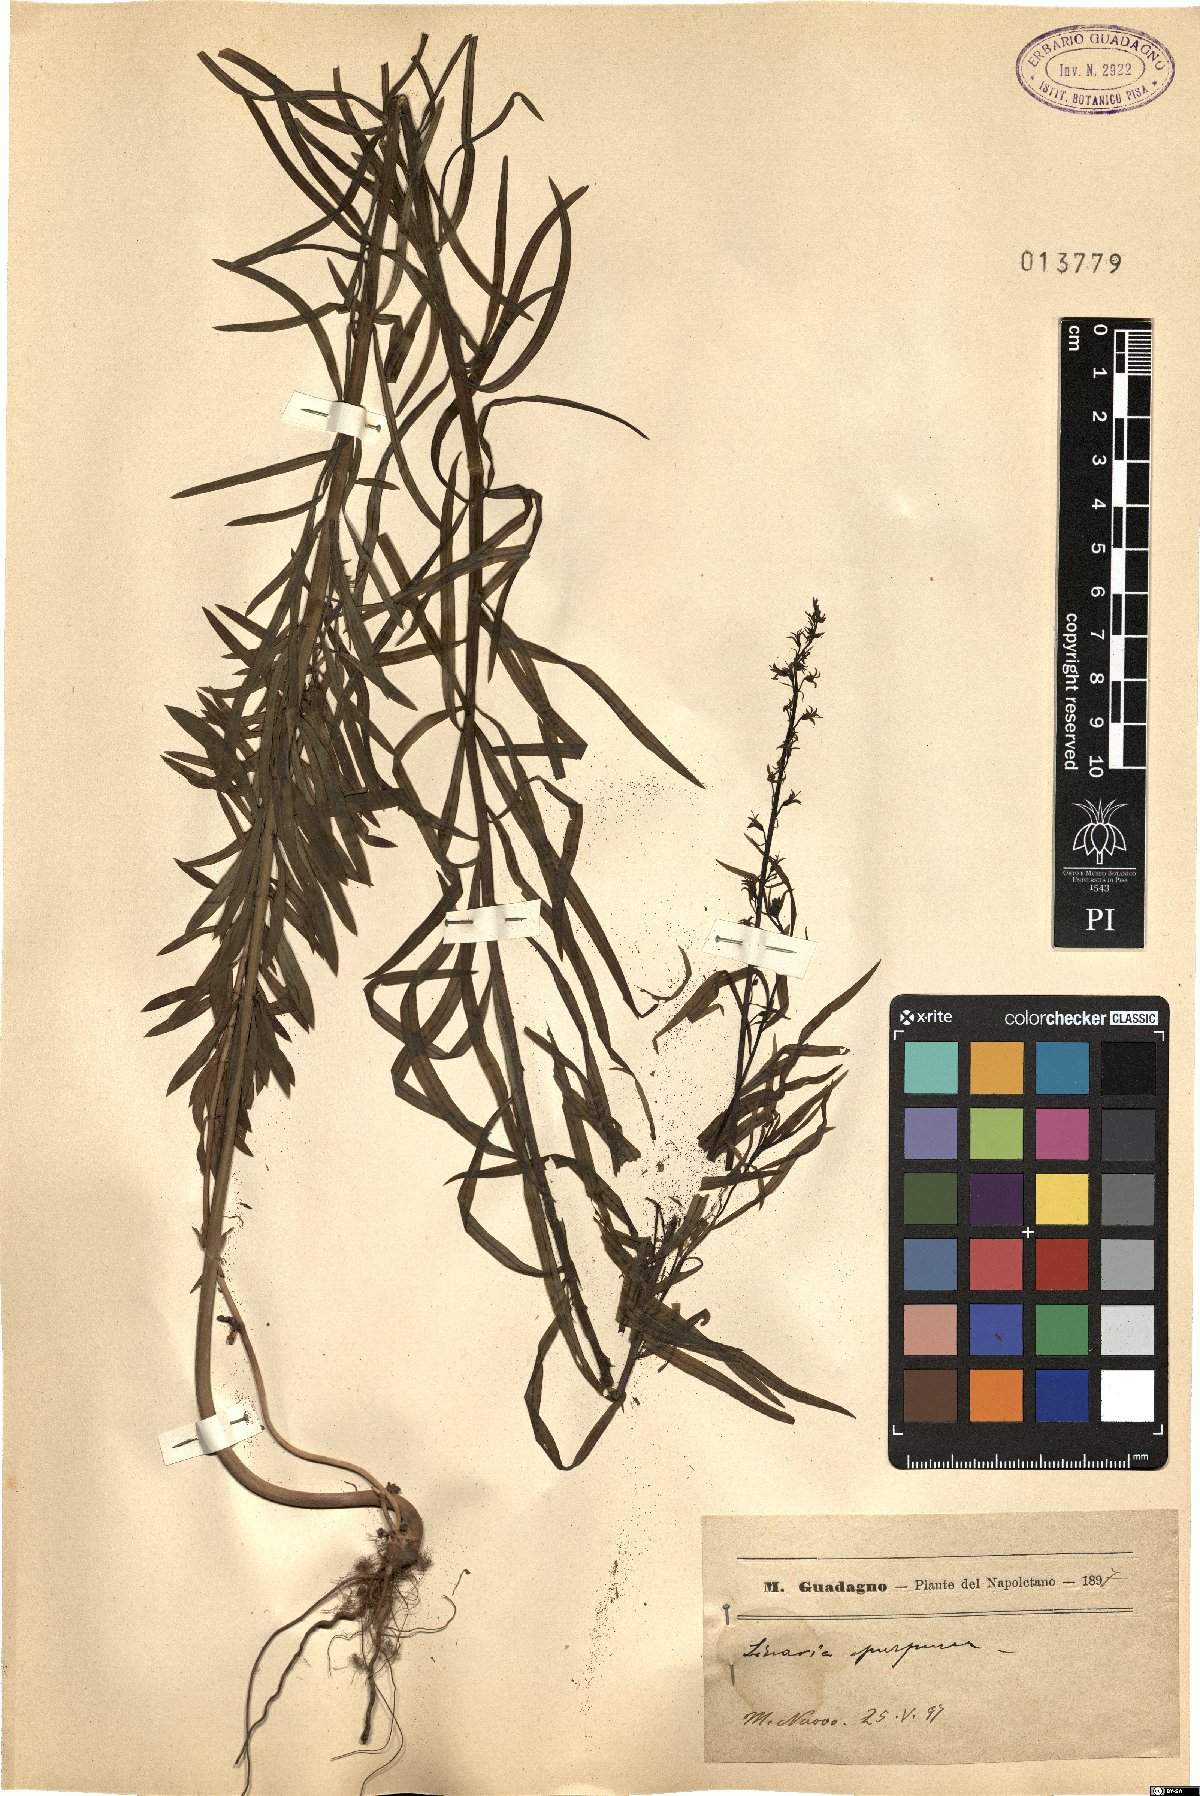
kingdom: Plantae
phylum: Tracheophyta
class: Magnoliopsida
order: Lamiales
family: Plantaginaceae
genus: Linaria
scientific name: Linaria purpurea
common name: Purple toadflax
